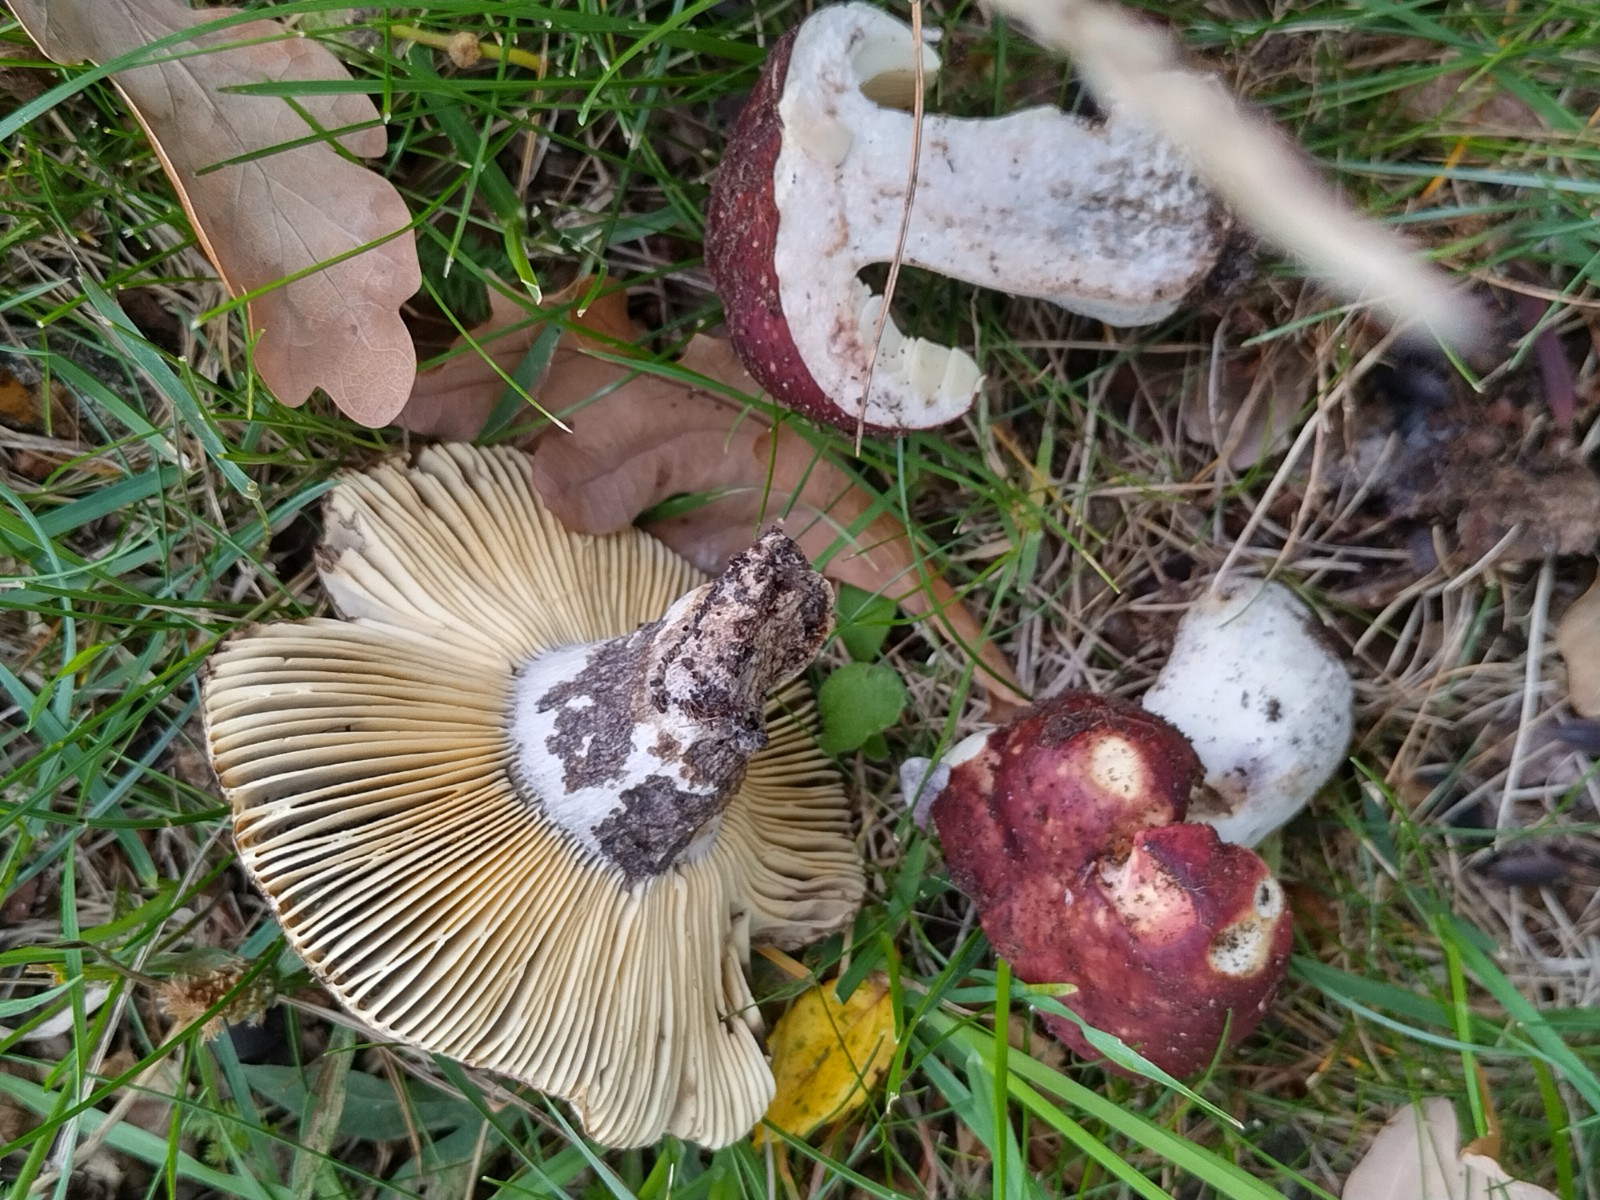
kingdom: Fungi
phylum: Basidiomycota
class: Agaricomycetes
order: Russulales
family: Russulaceae
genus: Russula
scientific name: Russula seperina
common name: rødmende skørhat
